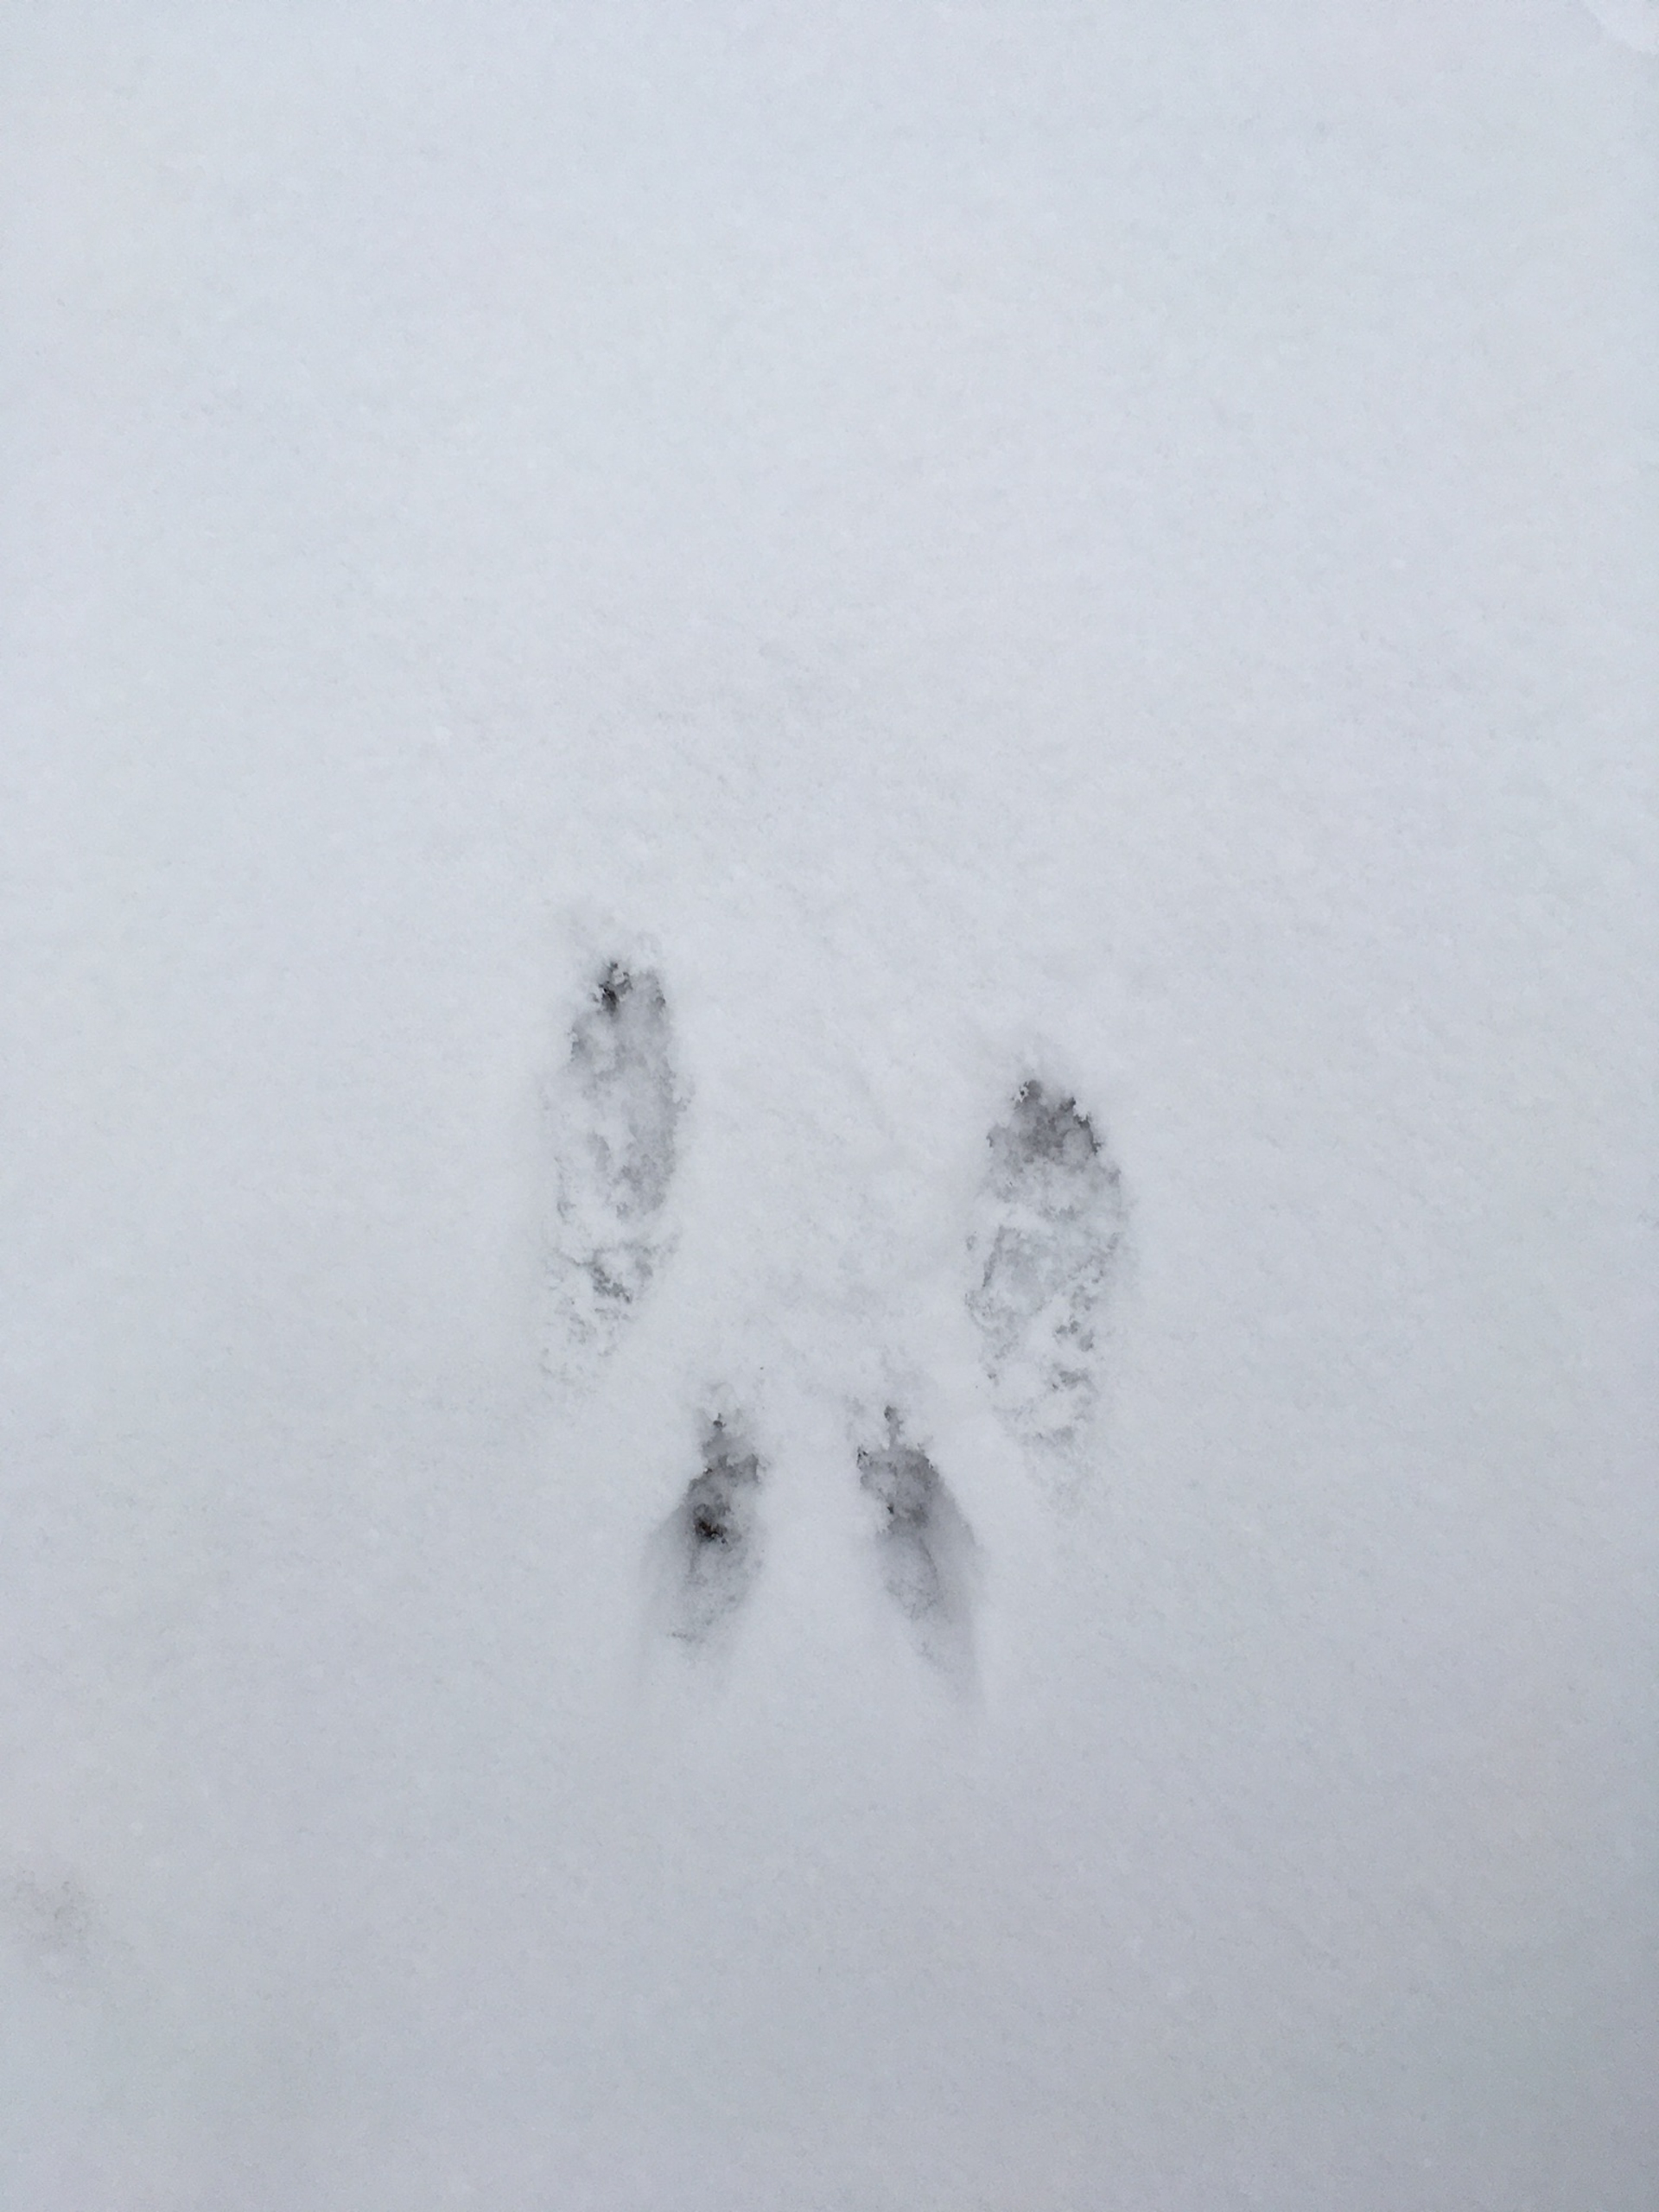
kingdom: Animalia
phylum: Chordata
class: Mammalia
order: Rodentia
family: Sciuridae
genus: Sciurus
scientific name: Sciurus vulgaris
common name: Egern
